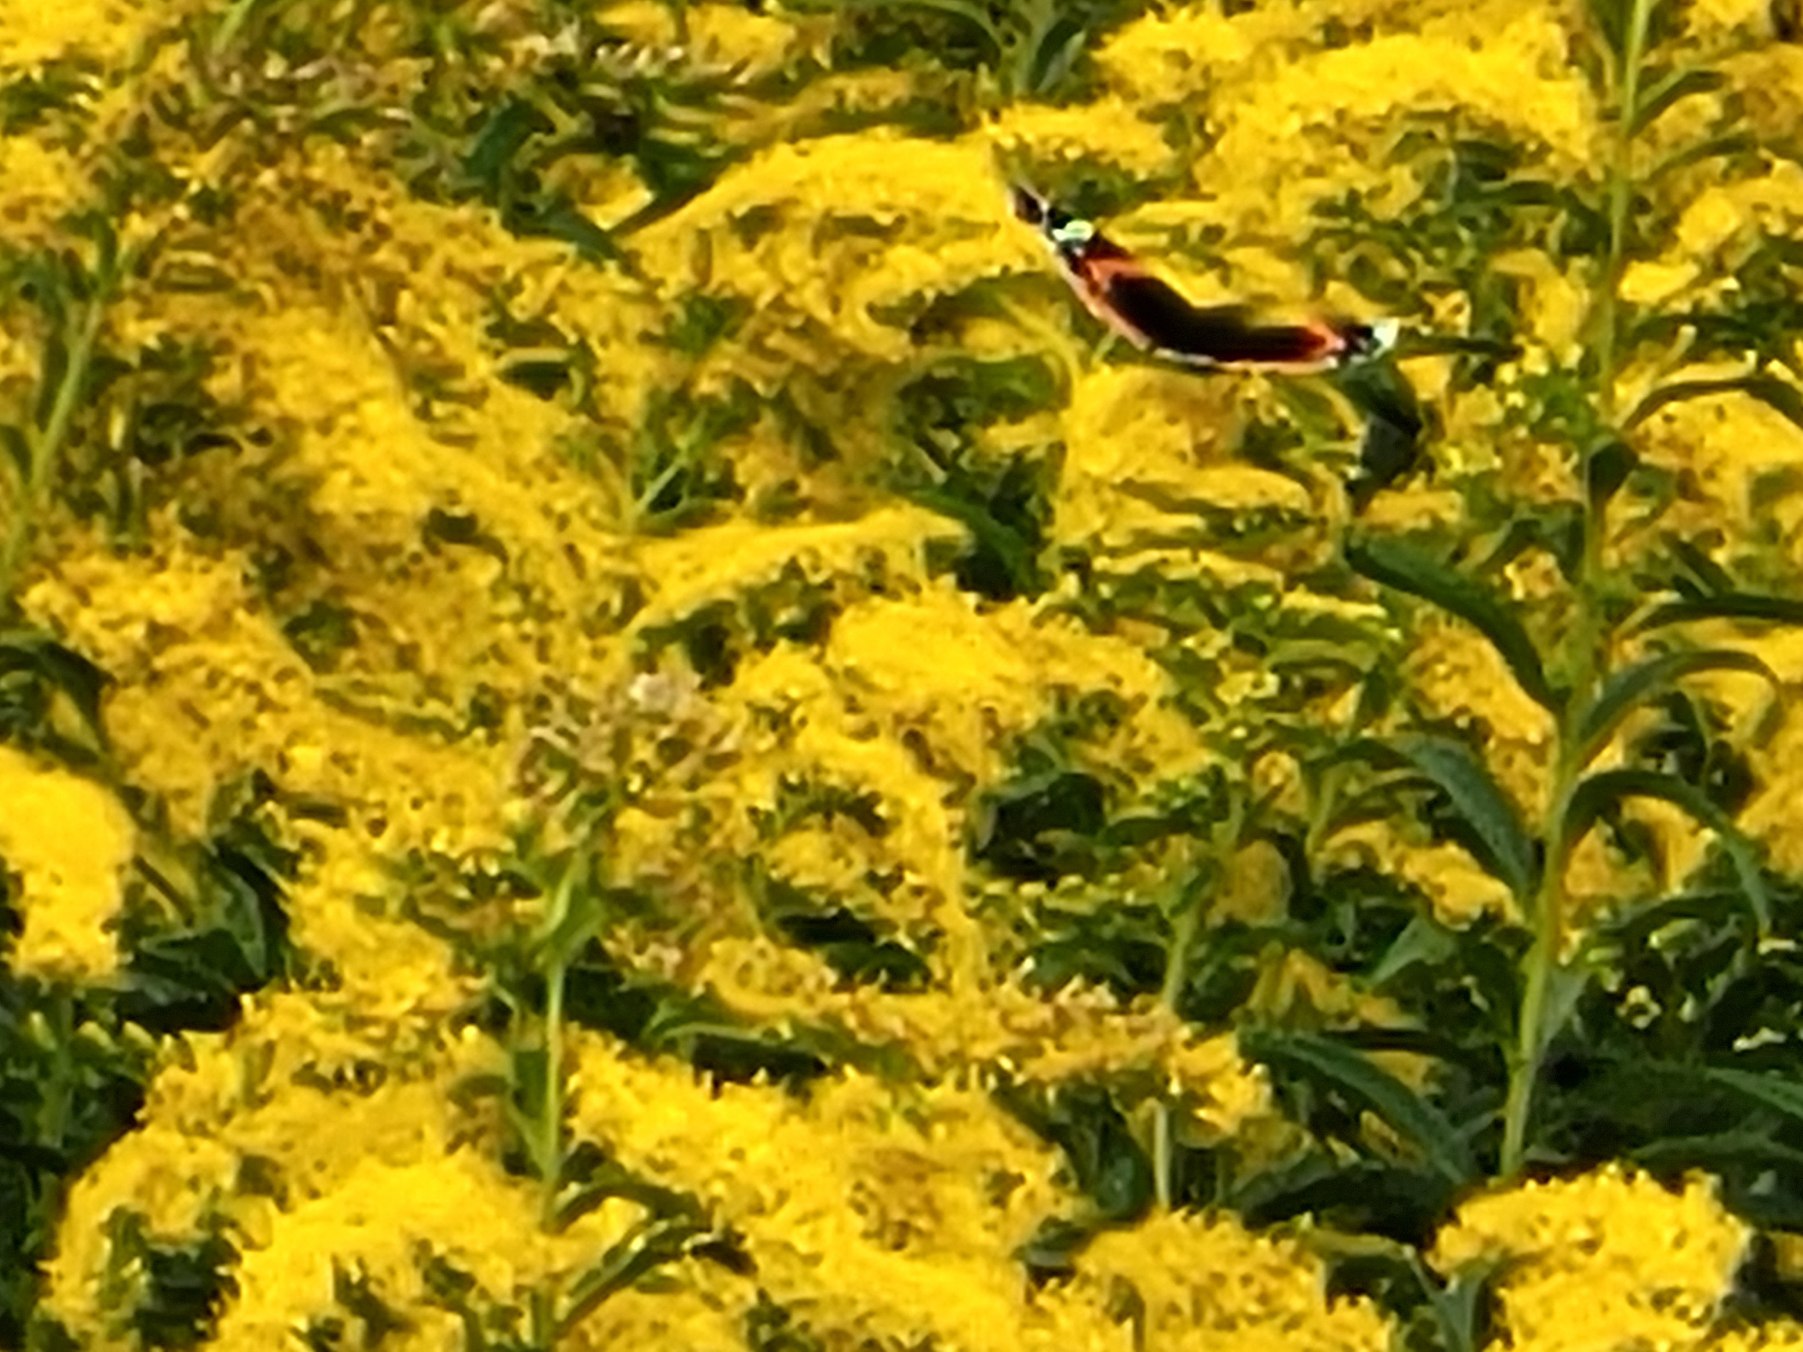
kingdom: Animalia
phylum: Arthropoda
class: Insecta
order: Lepidoptera
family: Nymphalidae
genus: Vanessa
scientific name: Vanessa atalanta
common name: Admiral
